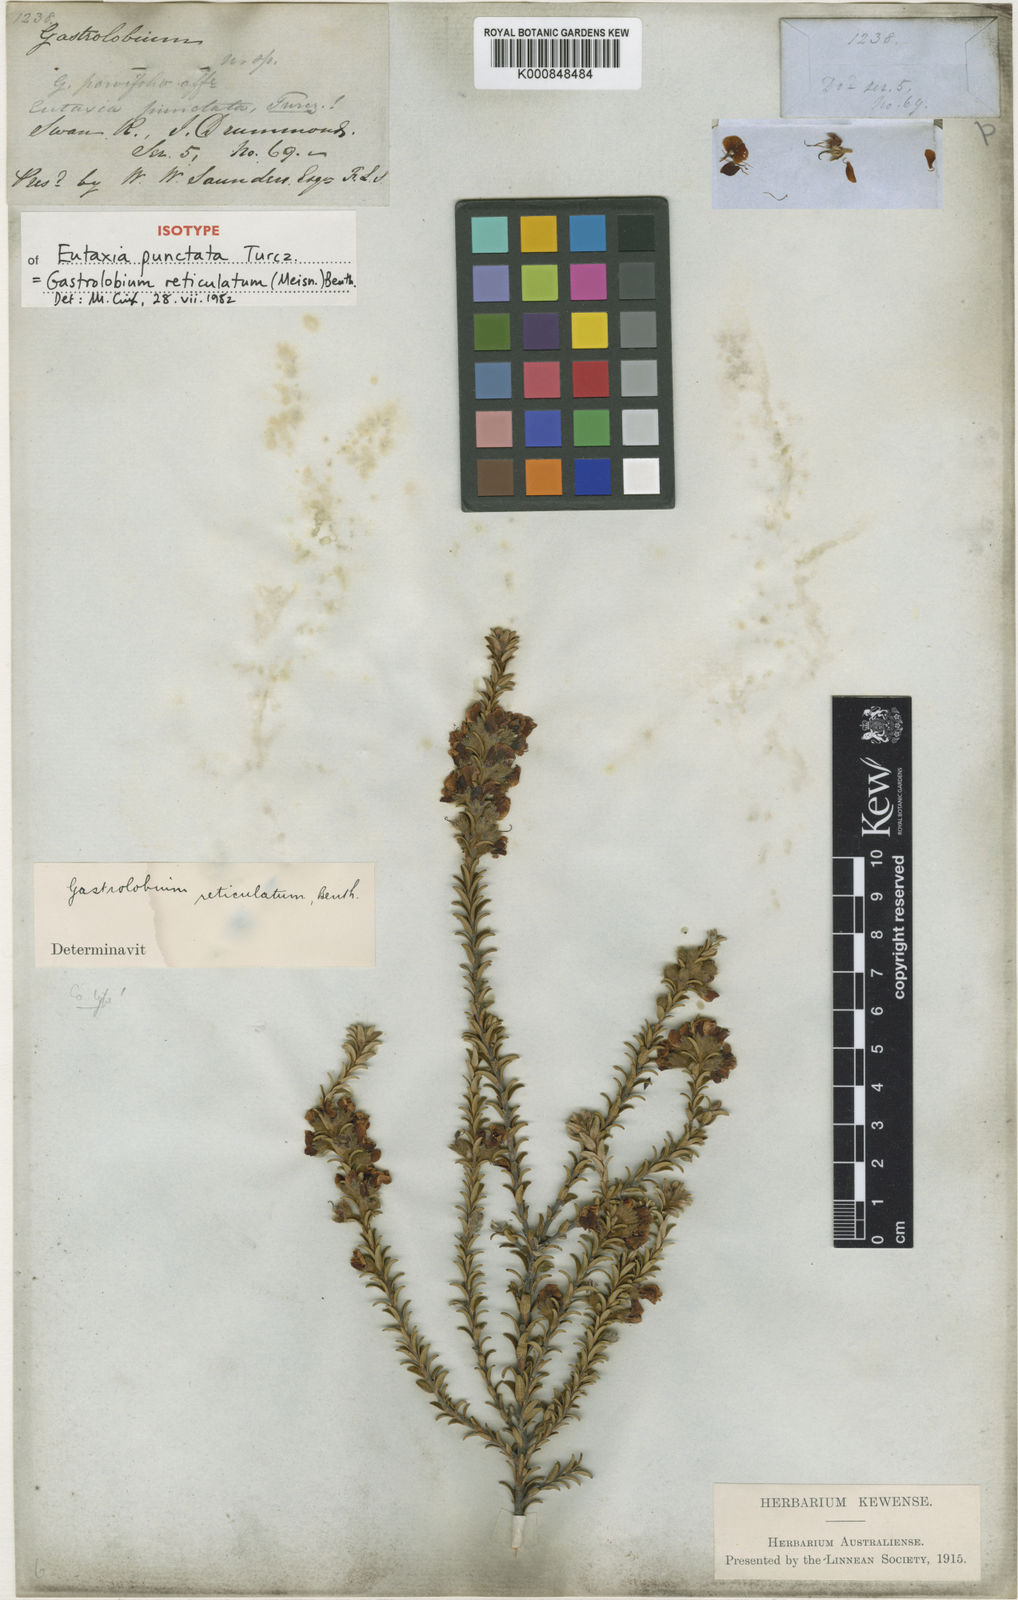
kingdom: Plantae
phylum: Tracheophyta
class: Magnoliopsida
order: Fabales
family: Fabaceae
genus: Gastrolobium
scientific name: Gastrolobium reticulatum
